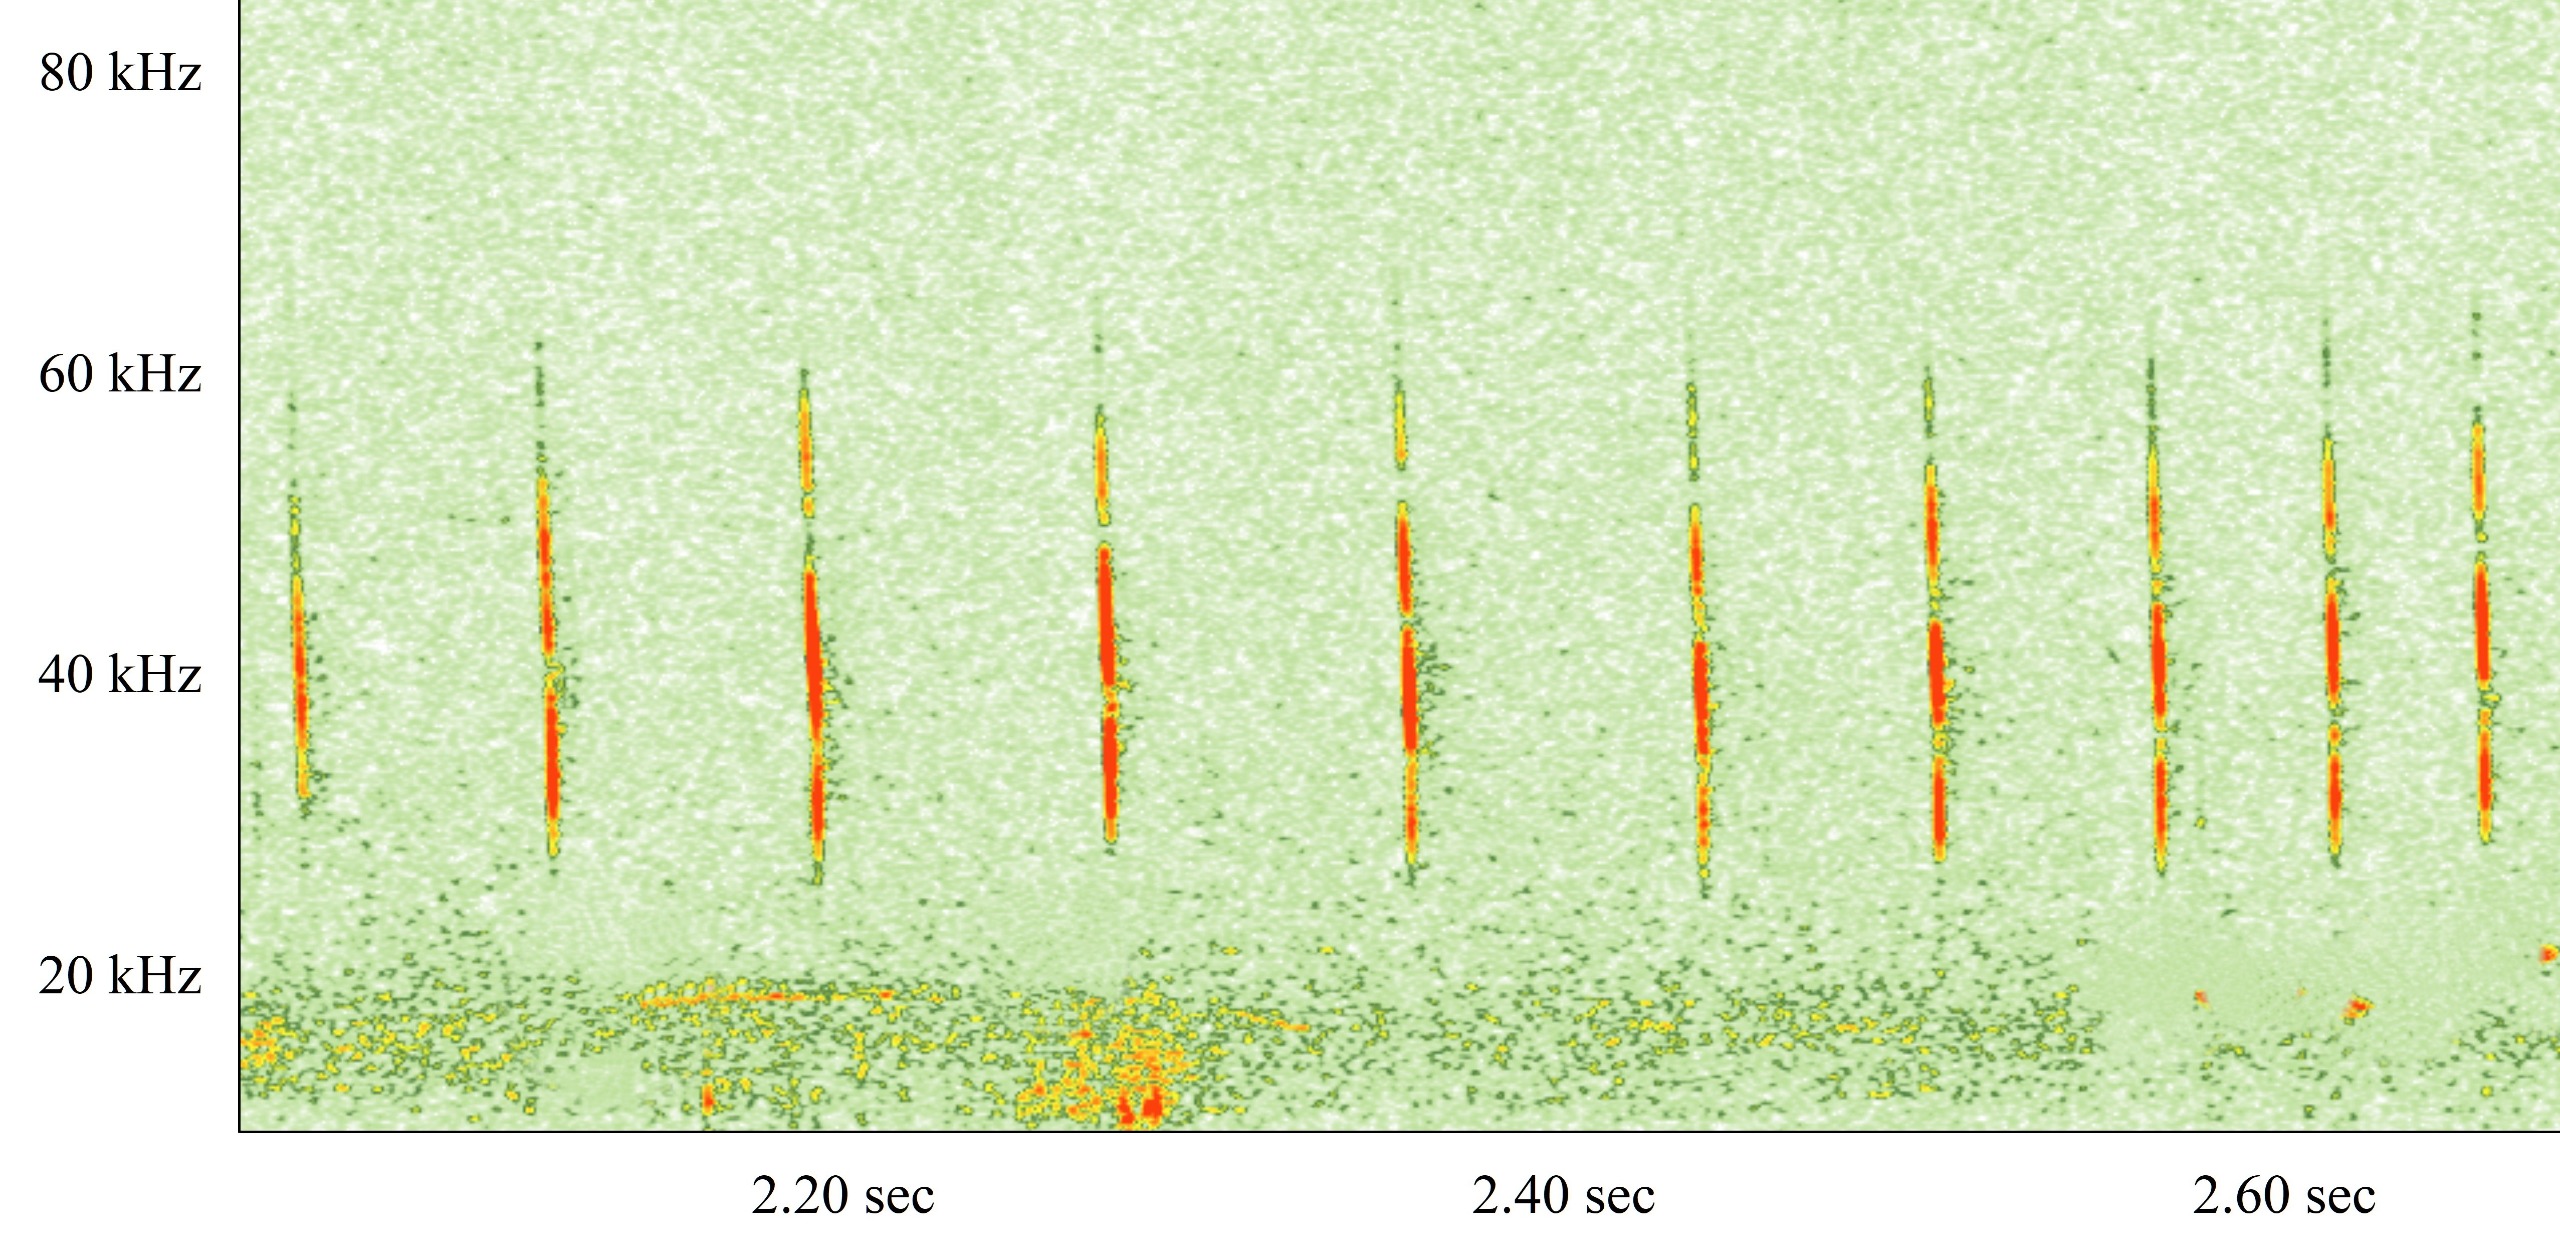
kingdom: Animalia
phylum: Chordata
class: Mammalia
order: Chiroptera
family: Vespertilionidae
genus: Myotis
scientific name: Myotis daubentonii
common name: Vandflagermus
